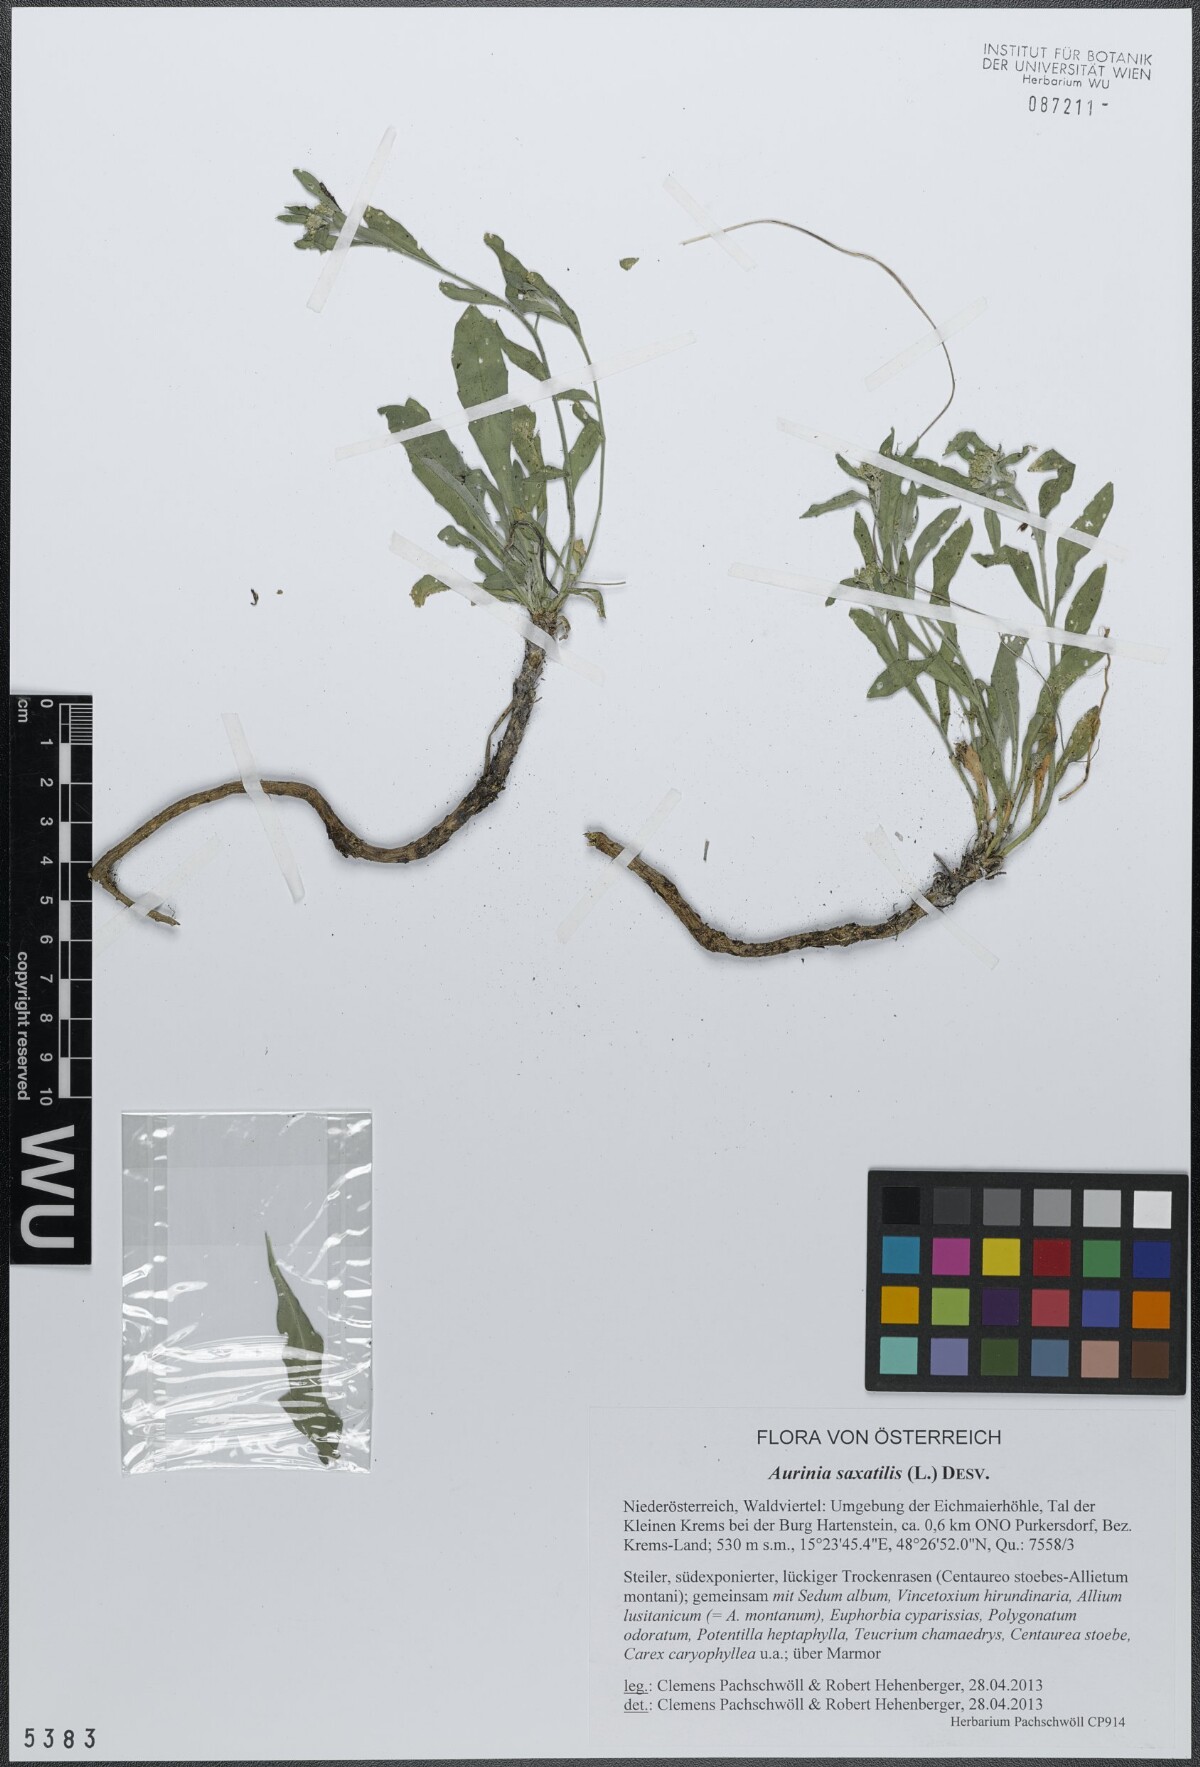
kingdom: Plantae
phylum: Tracheophyta
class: Magnoliopsida
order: Brassicales
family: Brassicaceae
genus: Aurinia
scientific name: Aurinia saxatilis
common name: Golden-tuft alyssum
